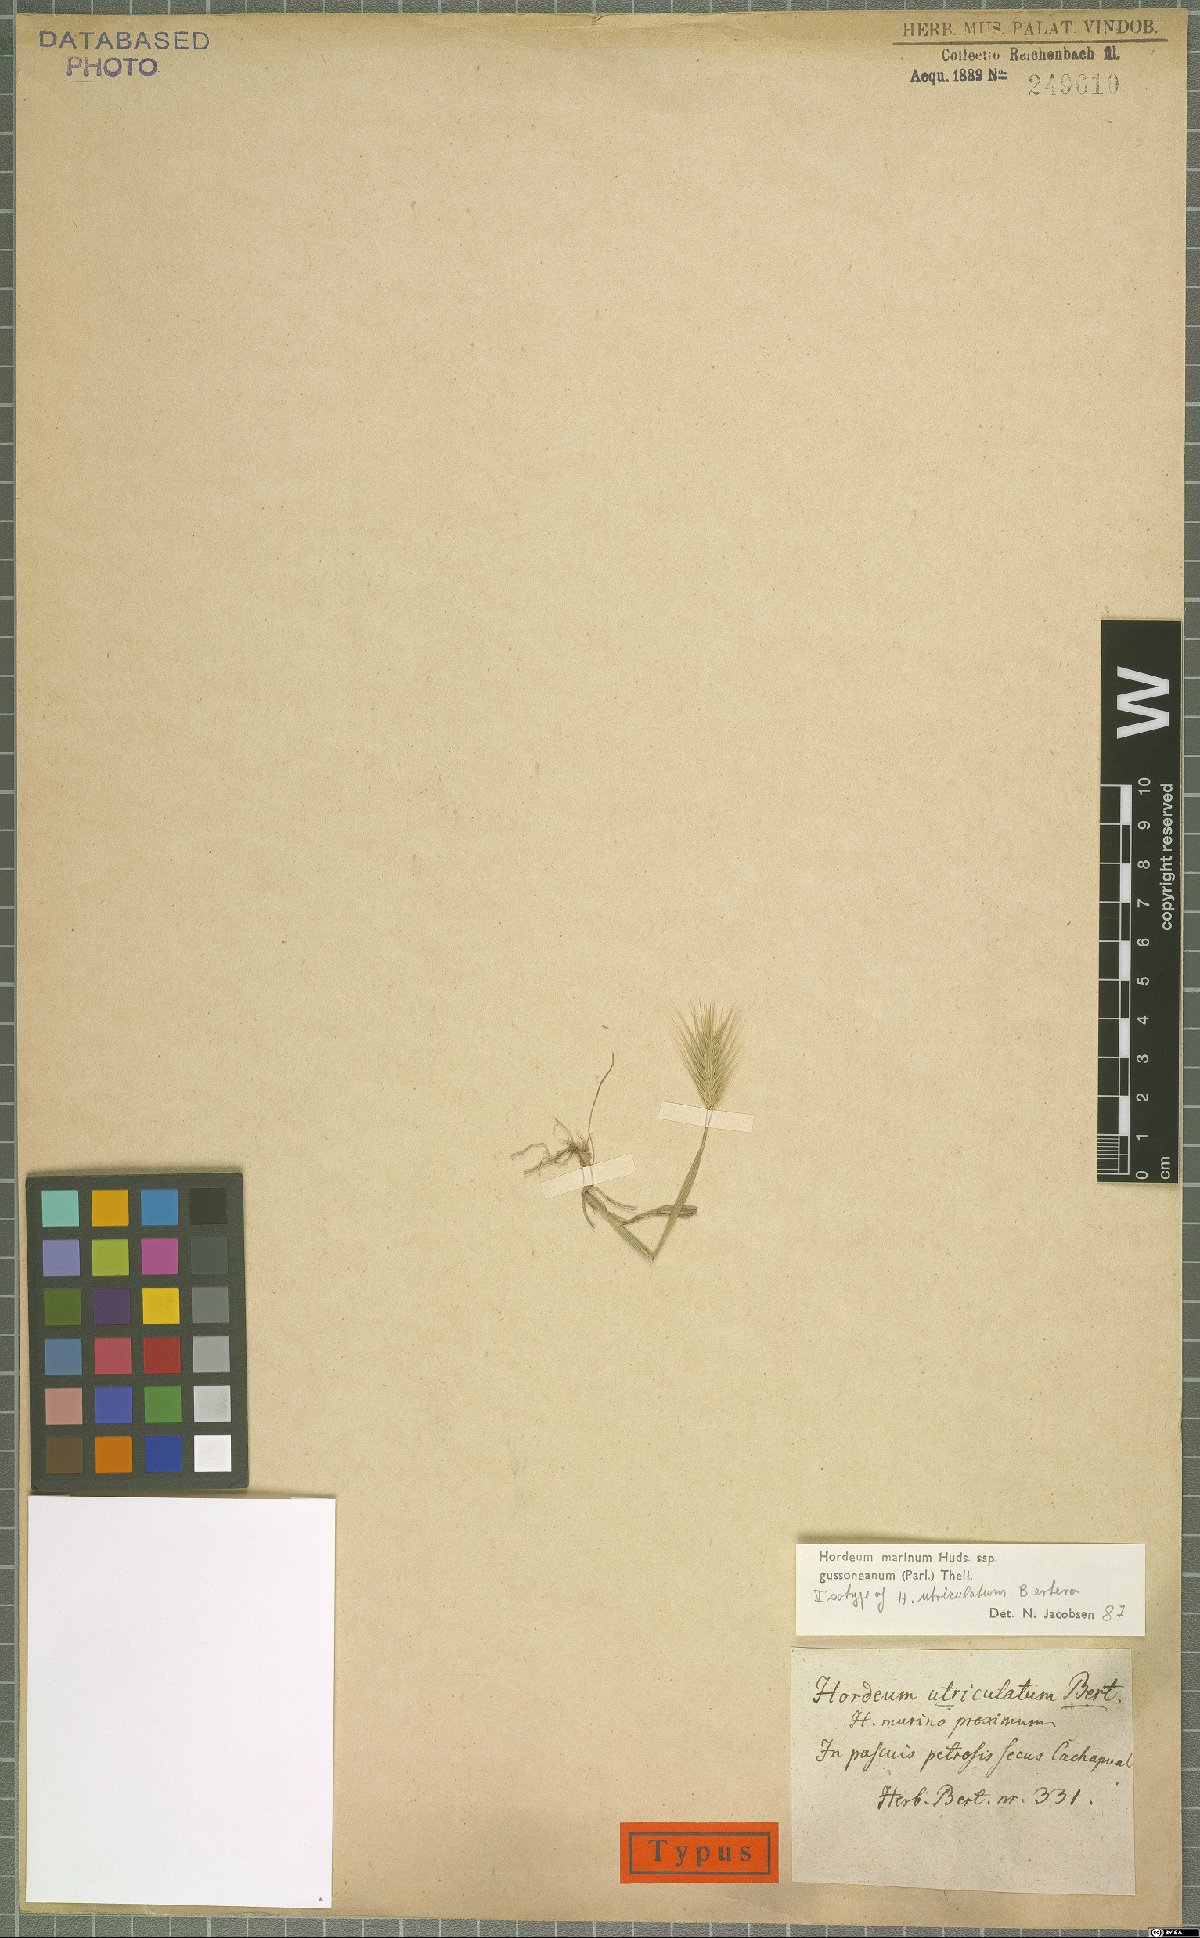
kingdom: Plantae
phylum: Tracheophyta
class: Liliopsida
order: Poales
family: Poaceae
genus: Hordeum
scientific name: Hordeum marinum
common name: Sea barley
